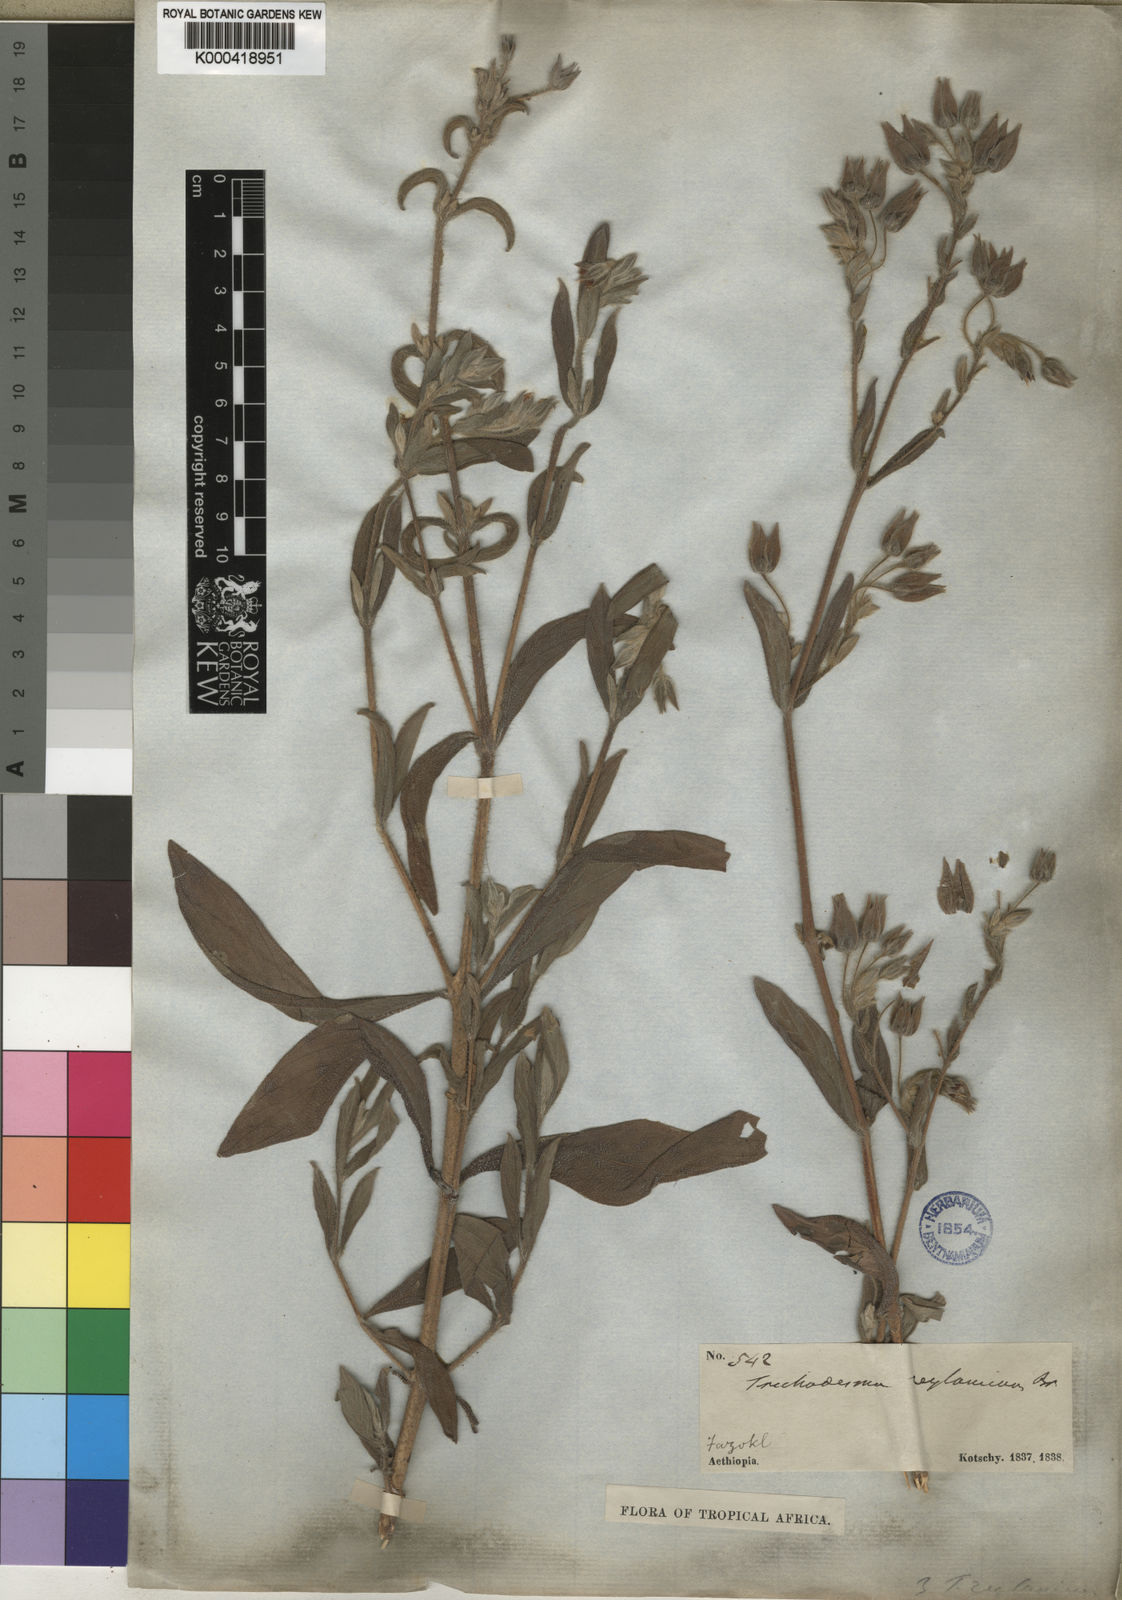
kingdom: Plantae
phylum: Tracheophyta
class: Magnoliopsida
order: Boraginales
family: Boraginaceae
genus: Trichodesma
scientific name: Trichodesma zeylanicum
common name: Camelbush
